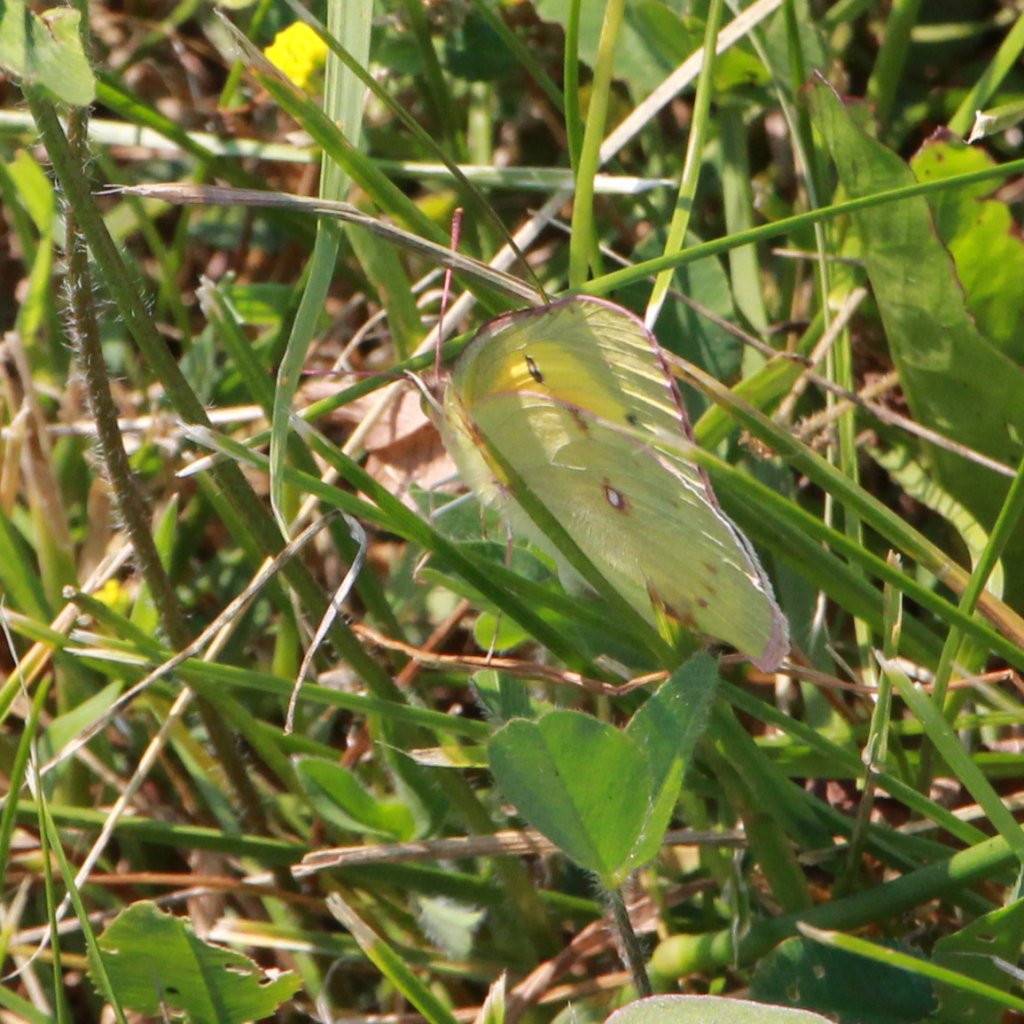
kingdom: Animalia
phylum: Arthropoda
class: Insecta
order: Lepidoptera
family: Pieridae
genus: Colias
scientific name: Colias eurytheme
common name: Orange Sulphur
